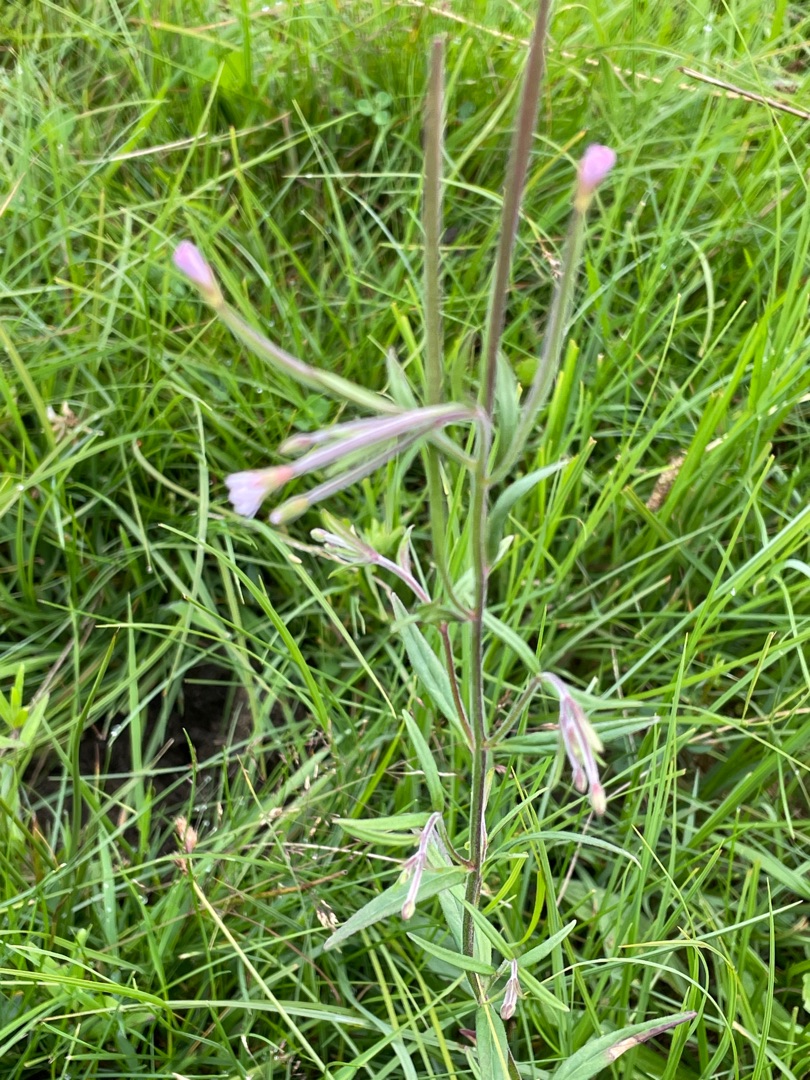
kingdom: Plantae
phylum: Tracheophyta
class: Magnoliopsida
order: Myrtales
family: Onagraceae
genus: Epilobium
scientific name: Epilobium palustre
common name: Kær-dueurt
